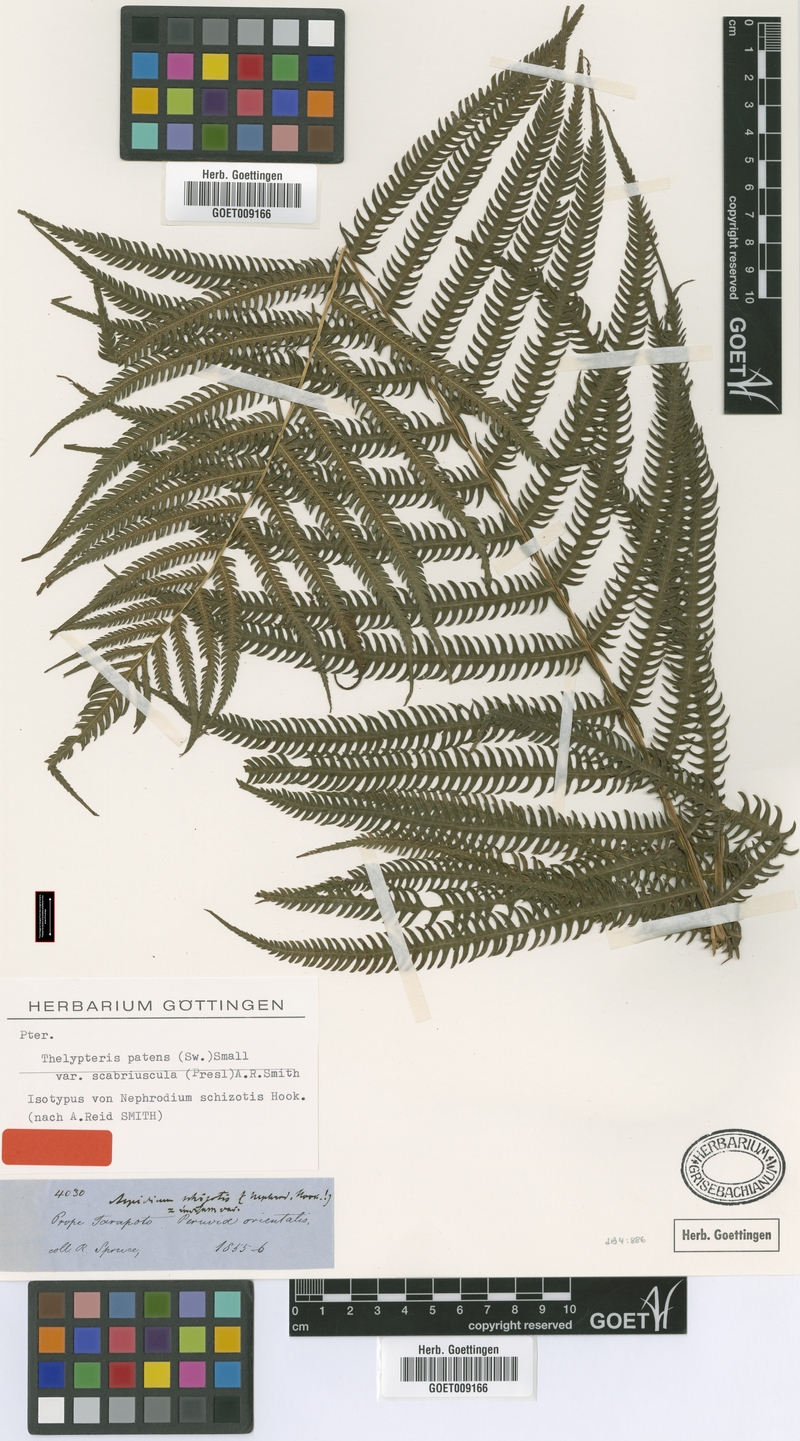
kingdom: Plantae
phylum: Tracheophyta
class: Polypodiopsida
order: Polypodiales
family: Thelypteridaceae
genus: Pelazoneuron
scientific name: Pelazoneuron patens
